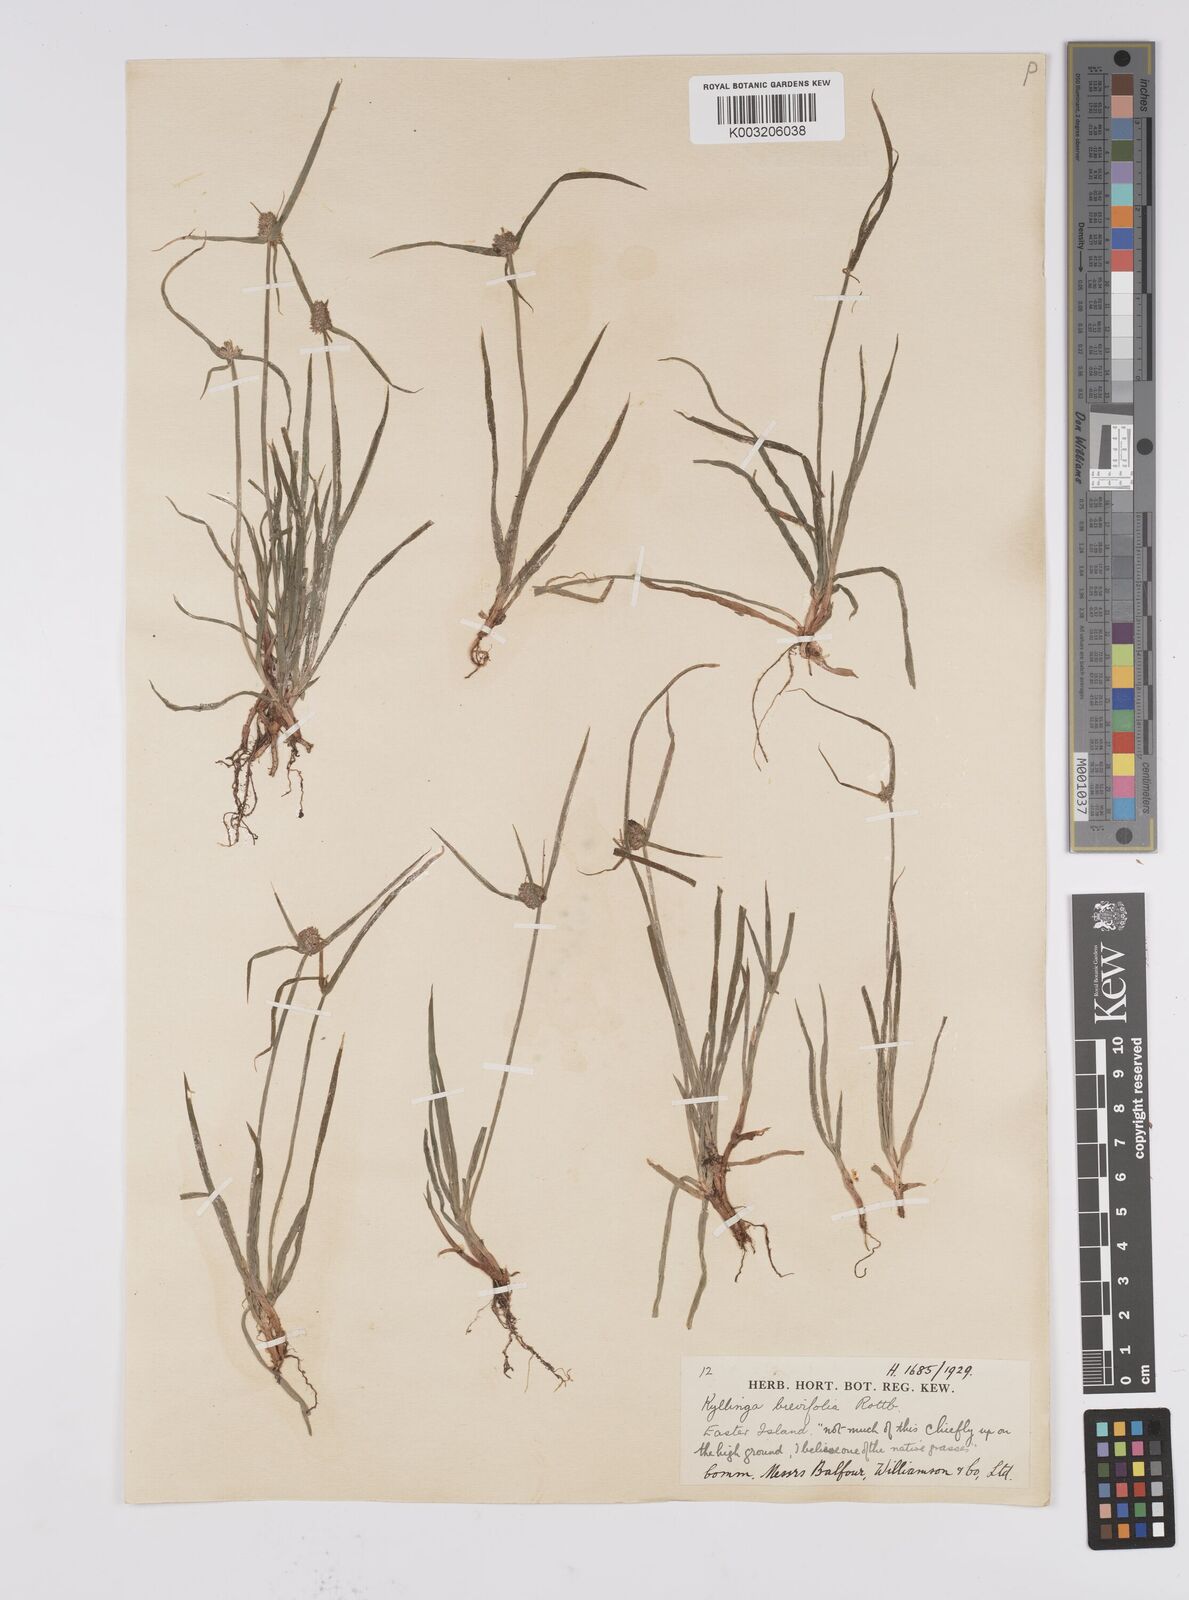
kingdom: Plantae
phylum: Tracheophyta
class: Liliopsida
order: Poales
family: Cyperaceae
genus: Cyperus
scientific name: Cyperus brevifolius
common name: Globe kyllinga
